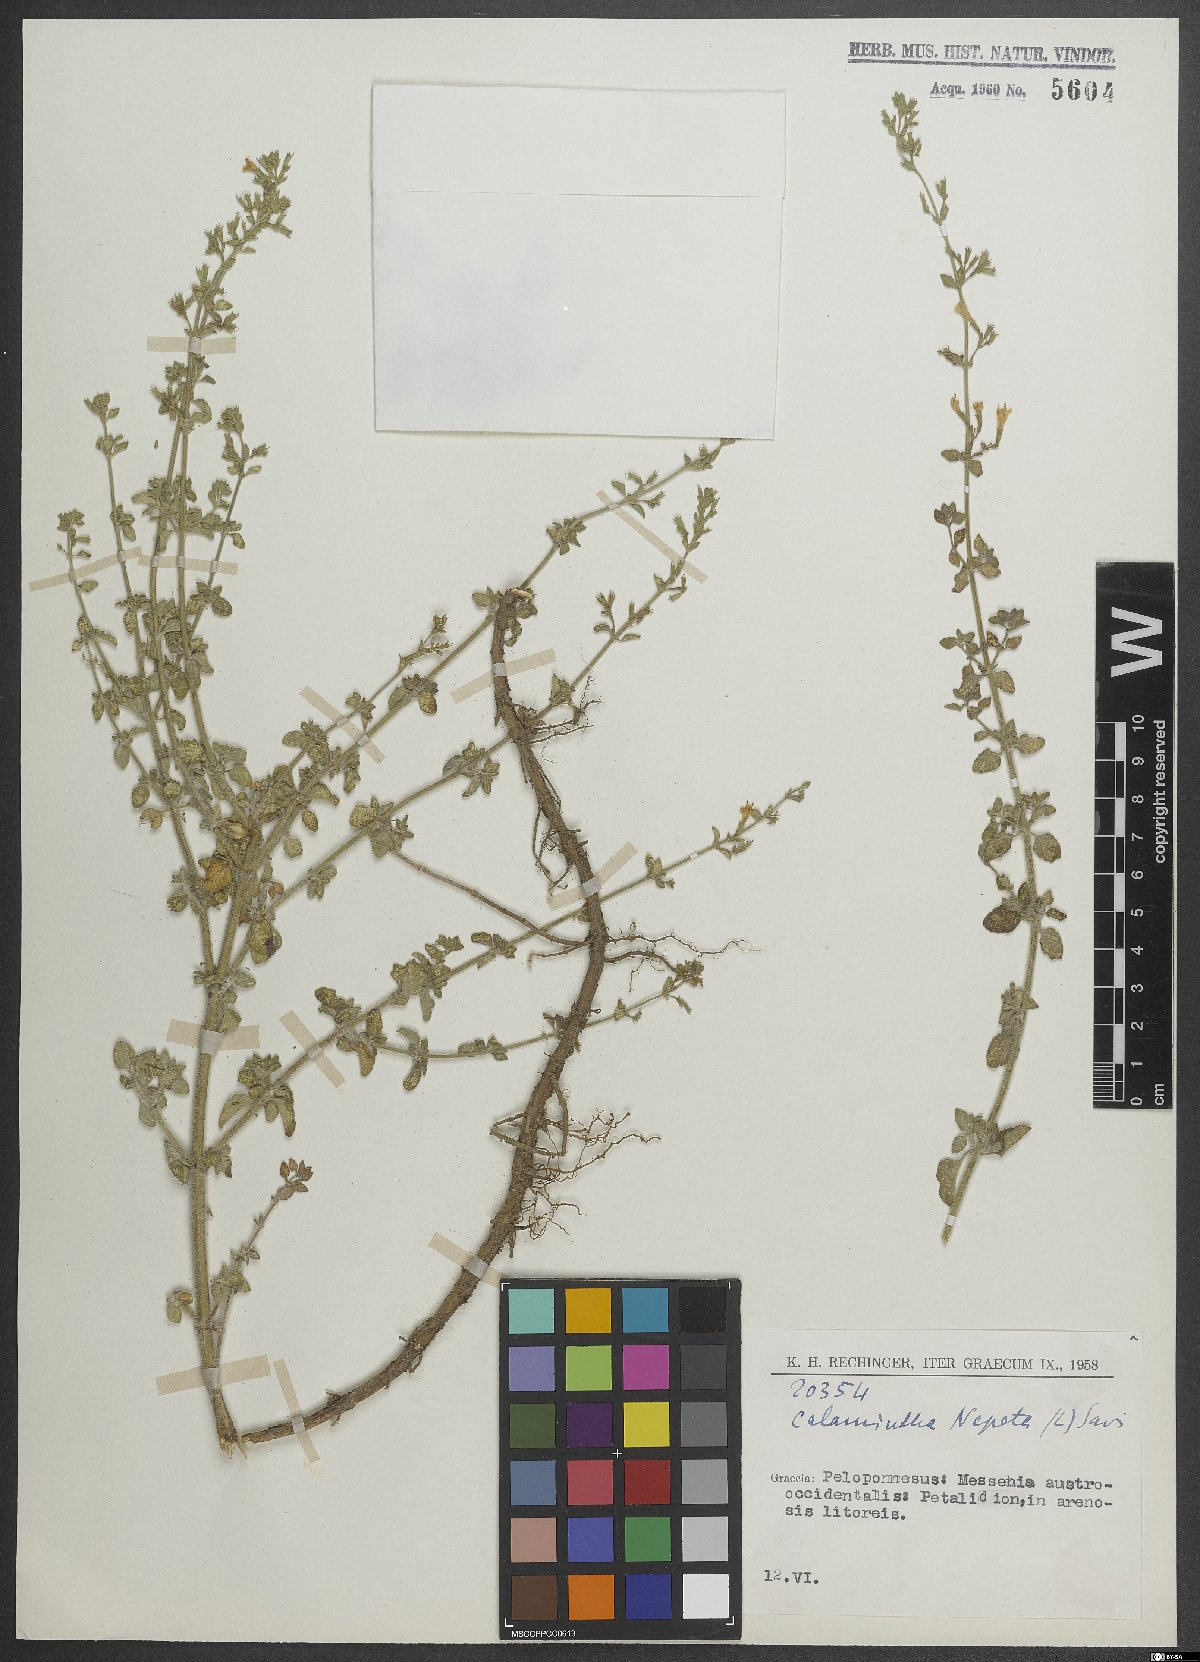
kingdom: Plantae
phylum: Tracheophyta
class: Magnoliopsida
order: Lamiales
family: Lamiaceae
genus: Clinopodium
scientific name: Clinopodium nepeta
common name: Lesser calamint
